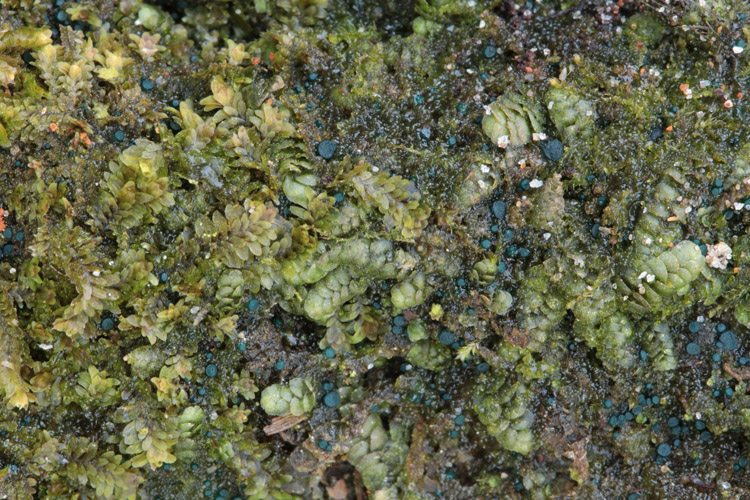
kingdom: Fungi
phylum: Ascomycota
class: Leotiomycetes
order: Leotiales
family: Mniaeciaceae
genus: Mniaecia
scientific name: Mniaecia jungermanniae
